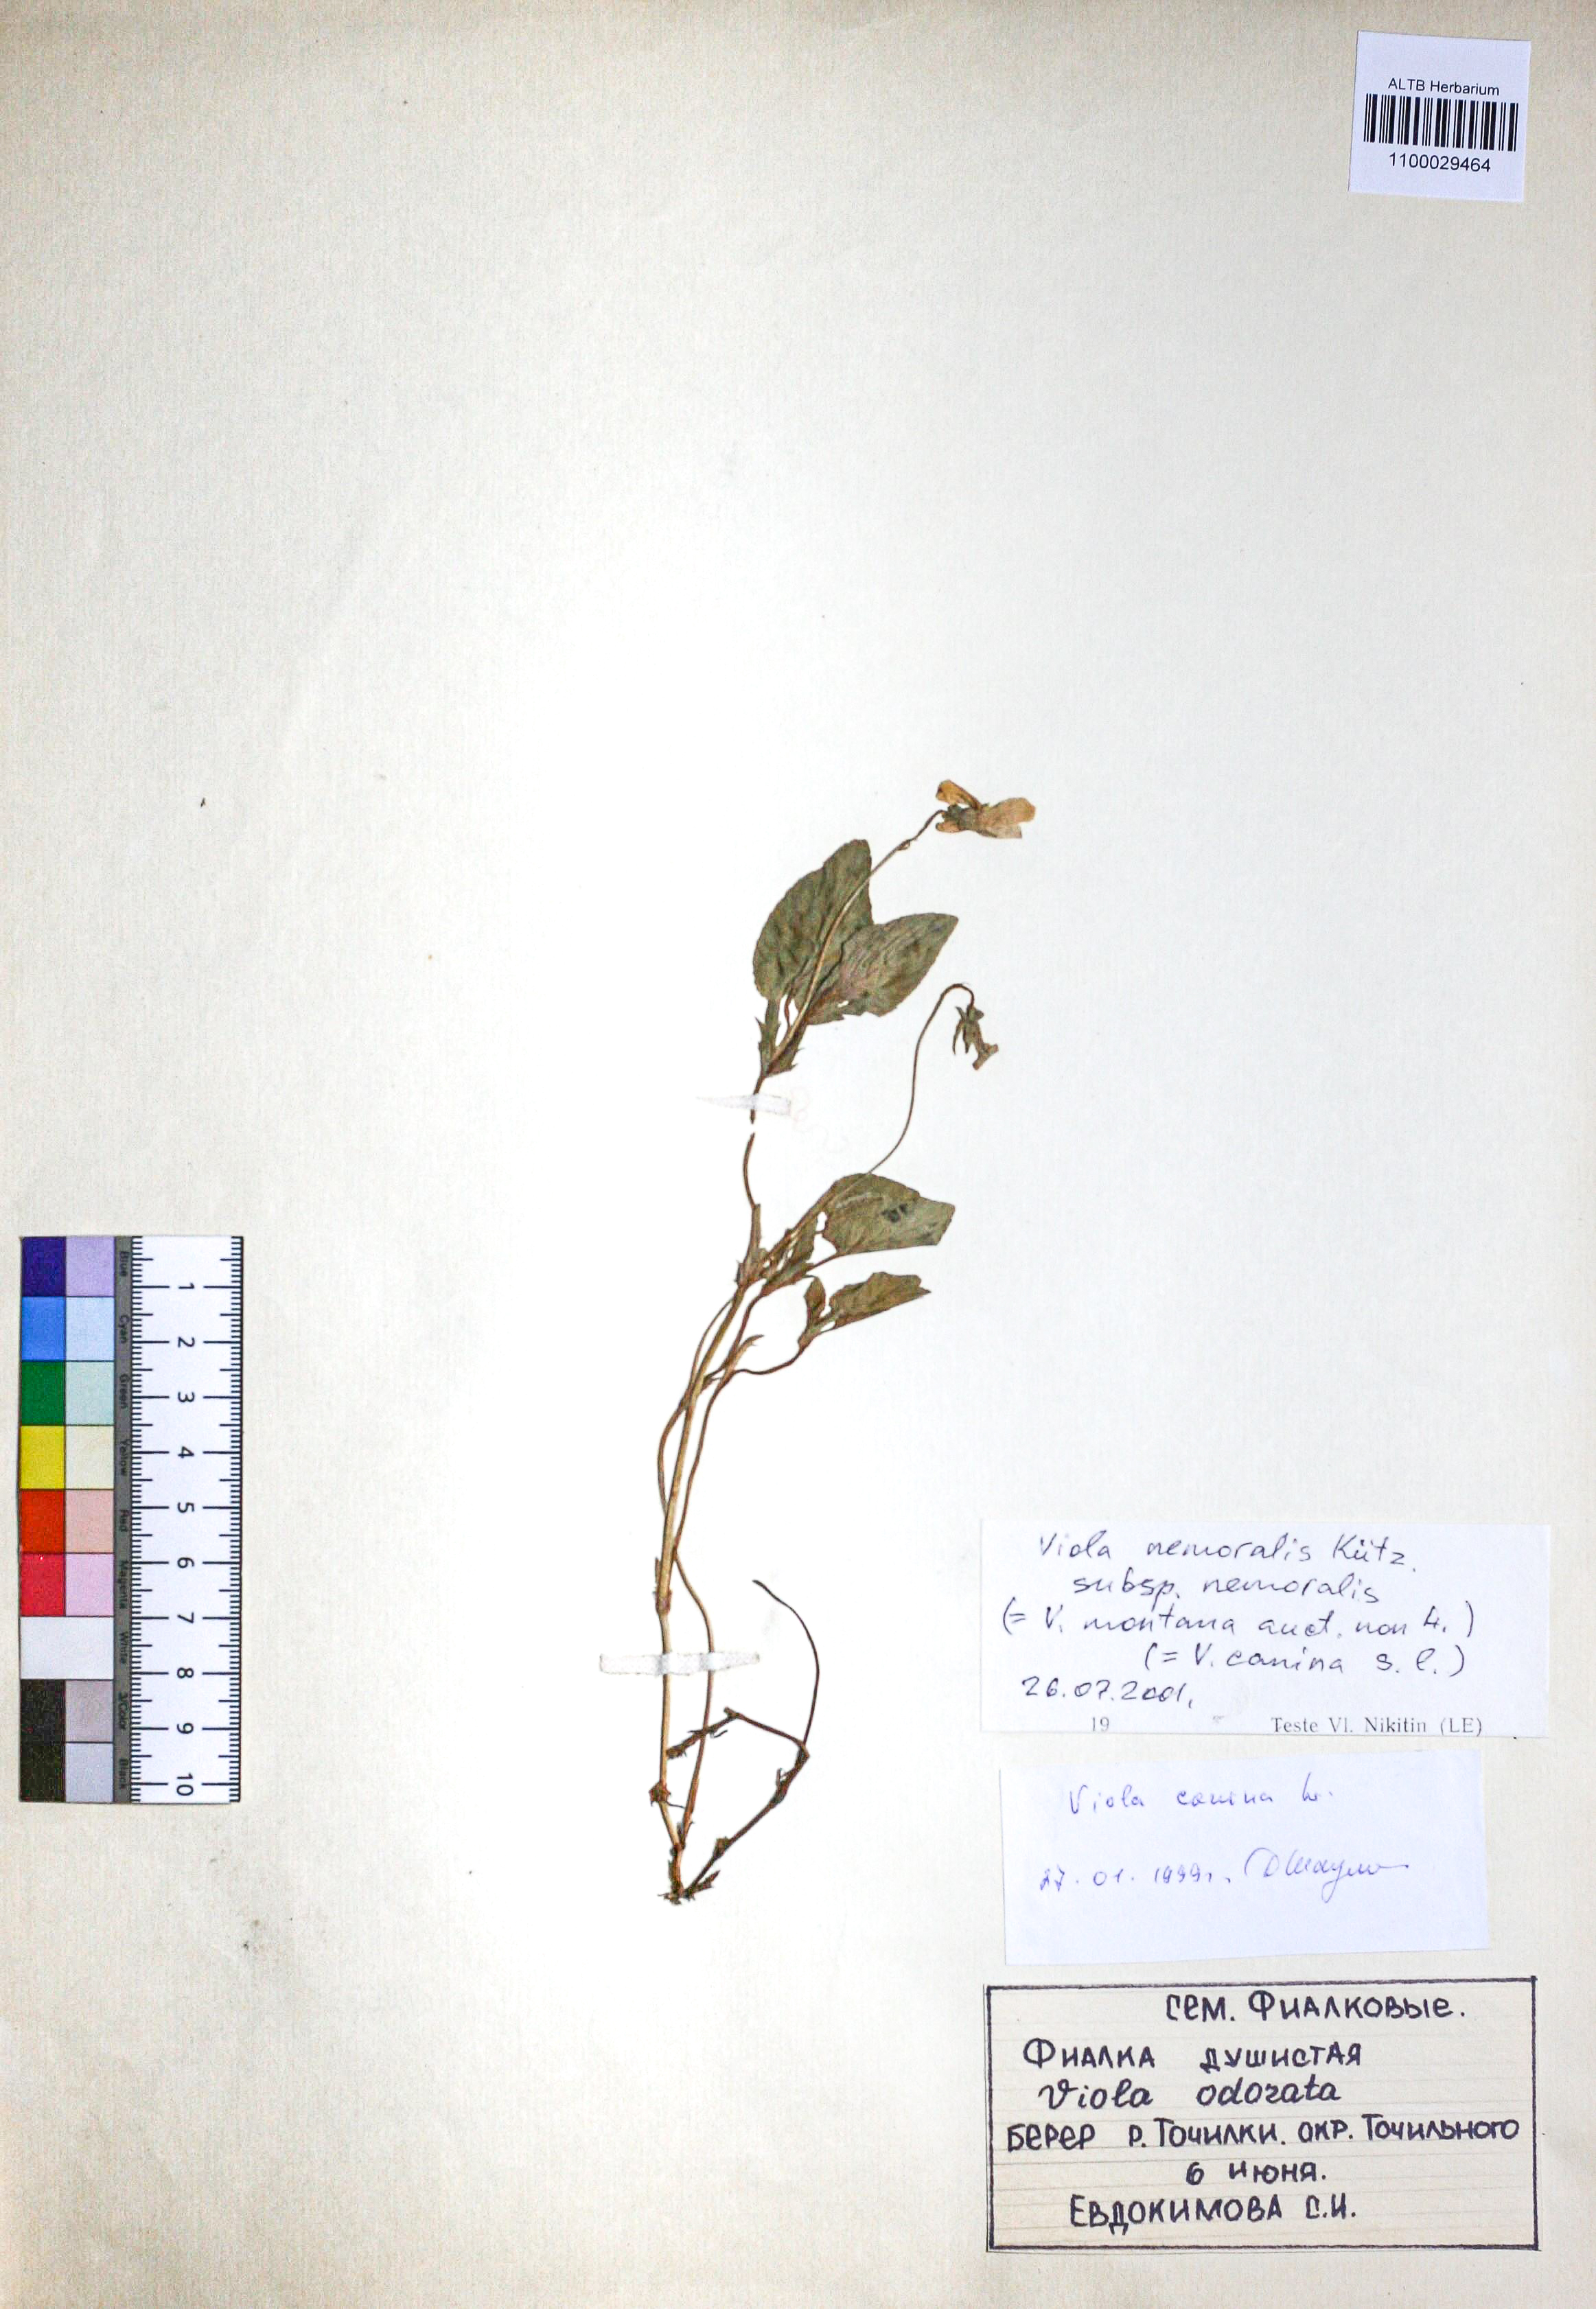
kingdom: Plantae
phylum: Tracheophyta
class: Magnoliopsida
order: Malpighiales
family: Violaceae
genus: Viola
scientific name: Viola ruppii
